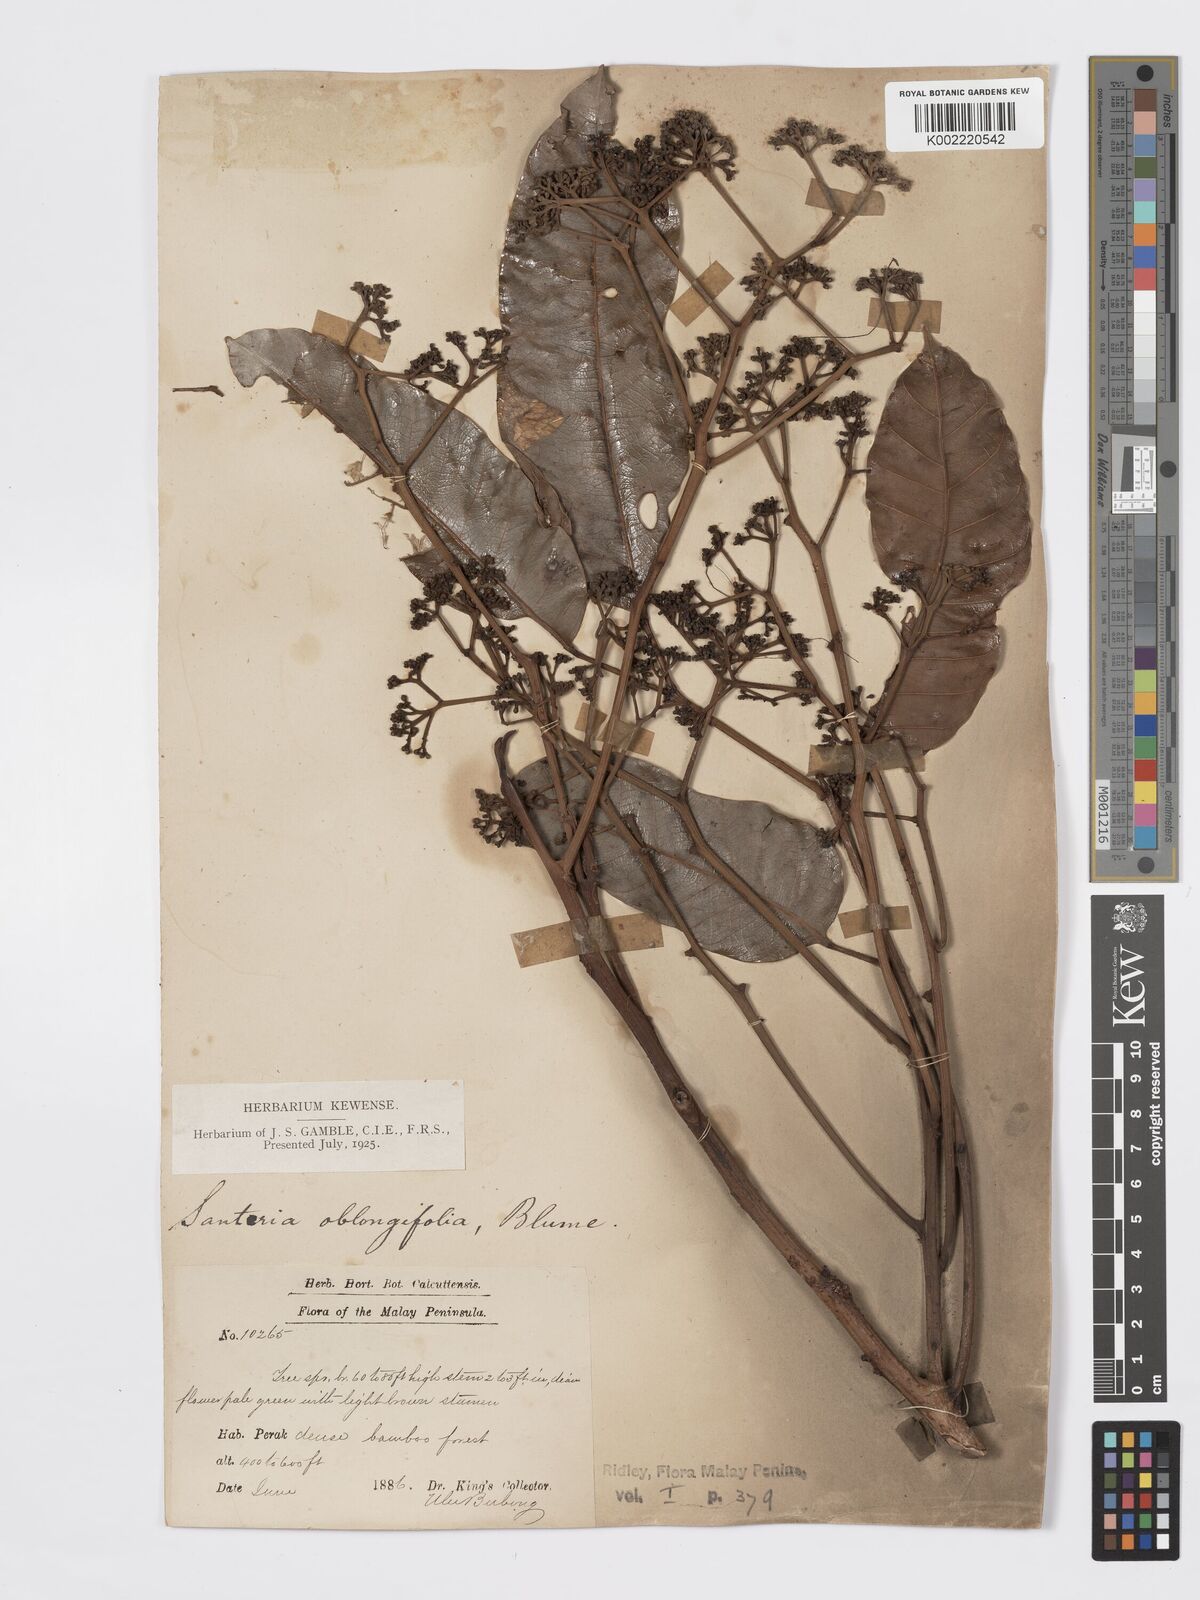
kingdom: Plantae
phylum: Tracheophyta
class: Magnoliopsida
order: Sapindales
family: Burseraceae
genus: Santiria
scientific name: Santiria oblongifolia
